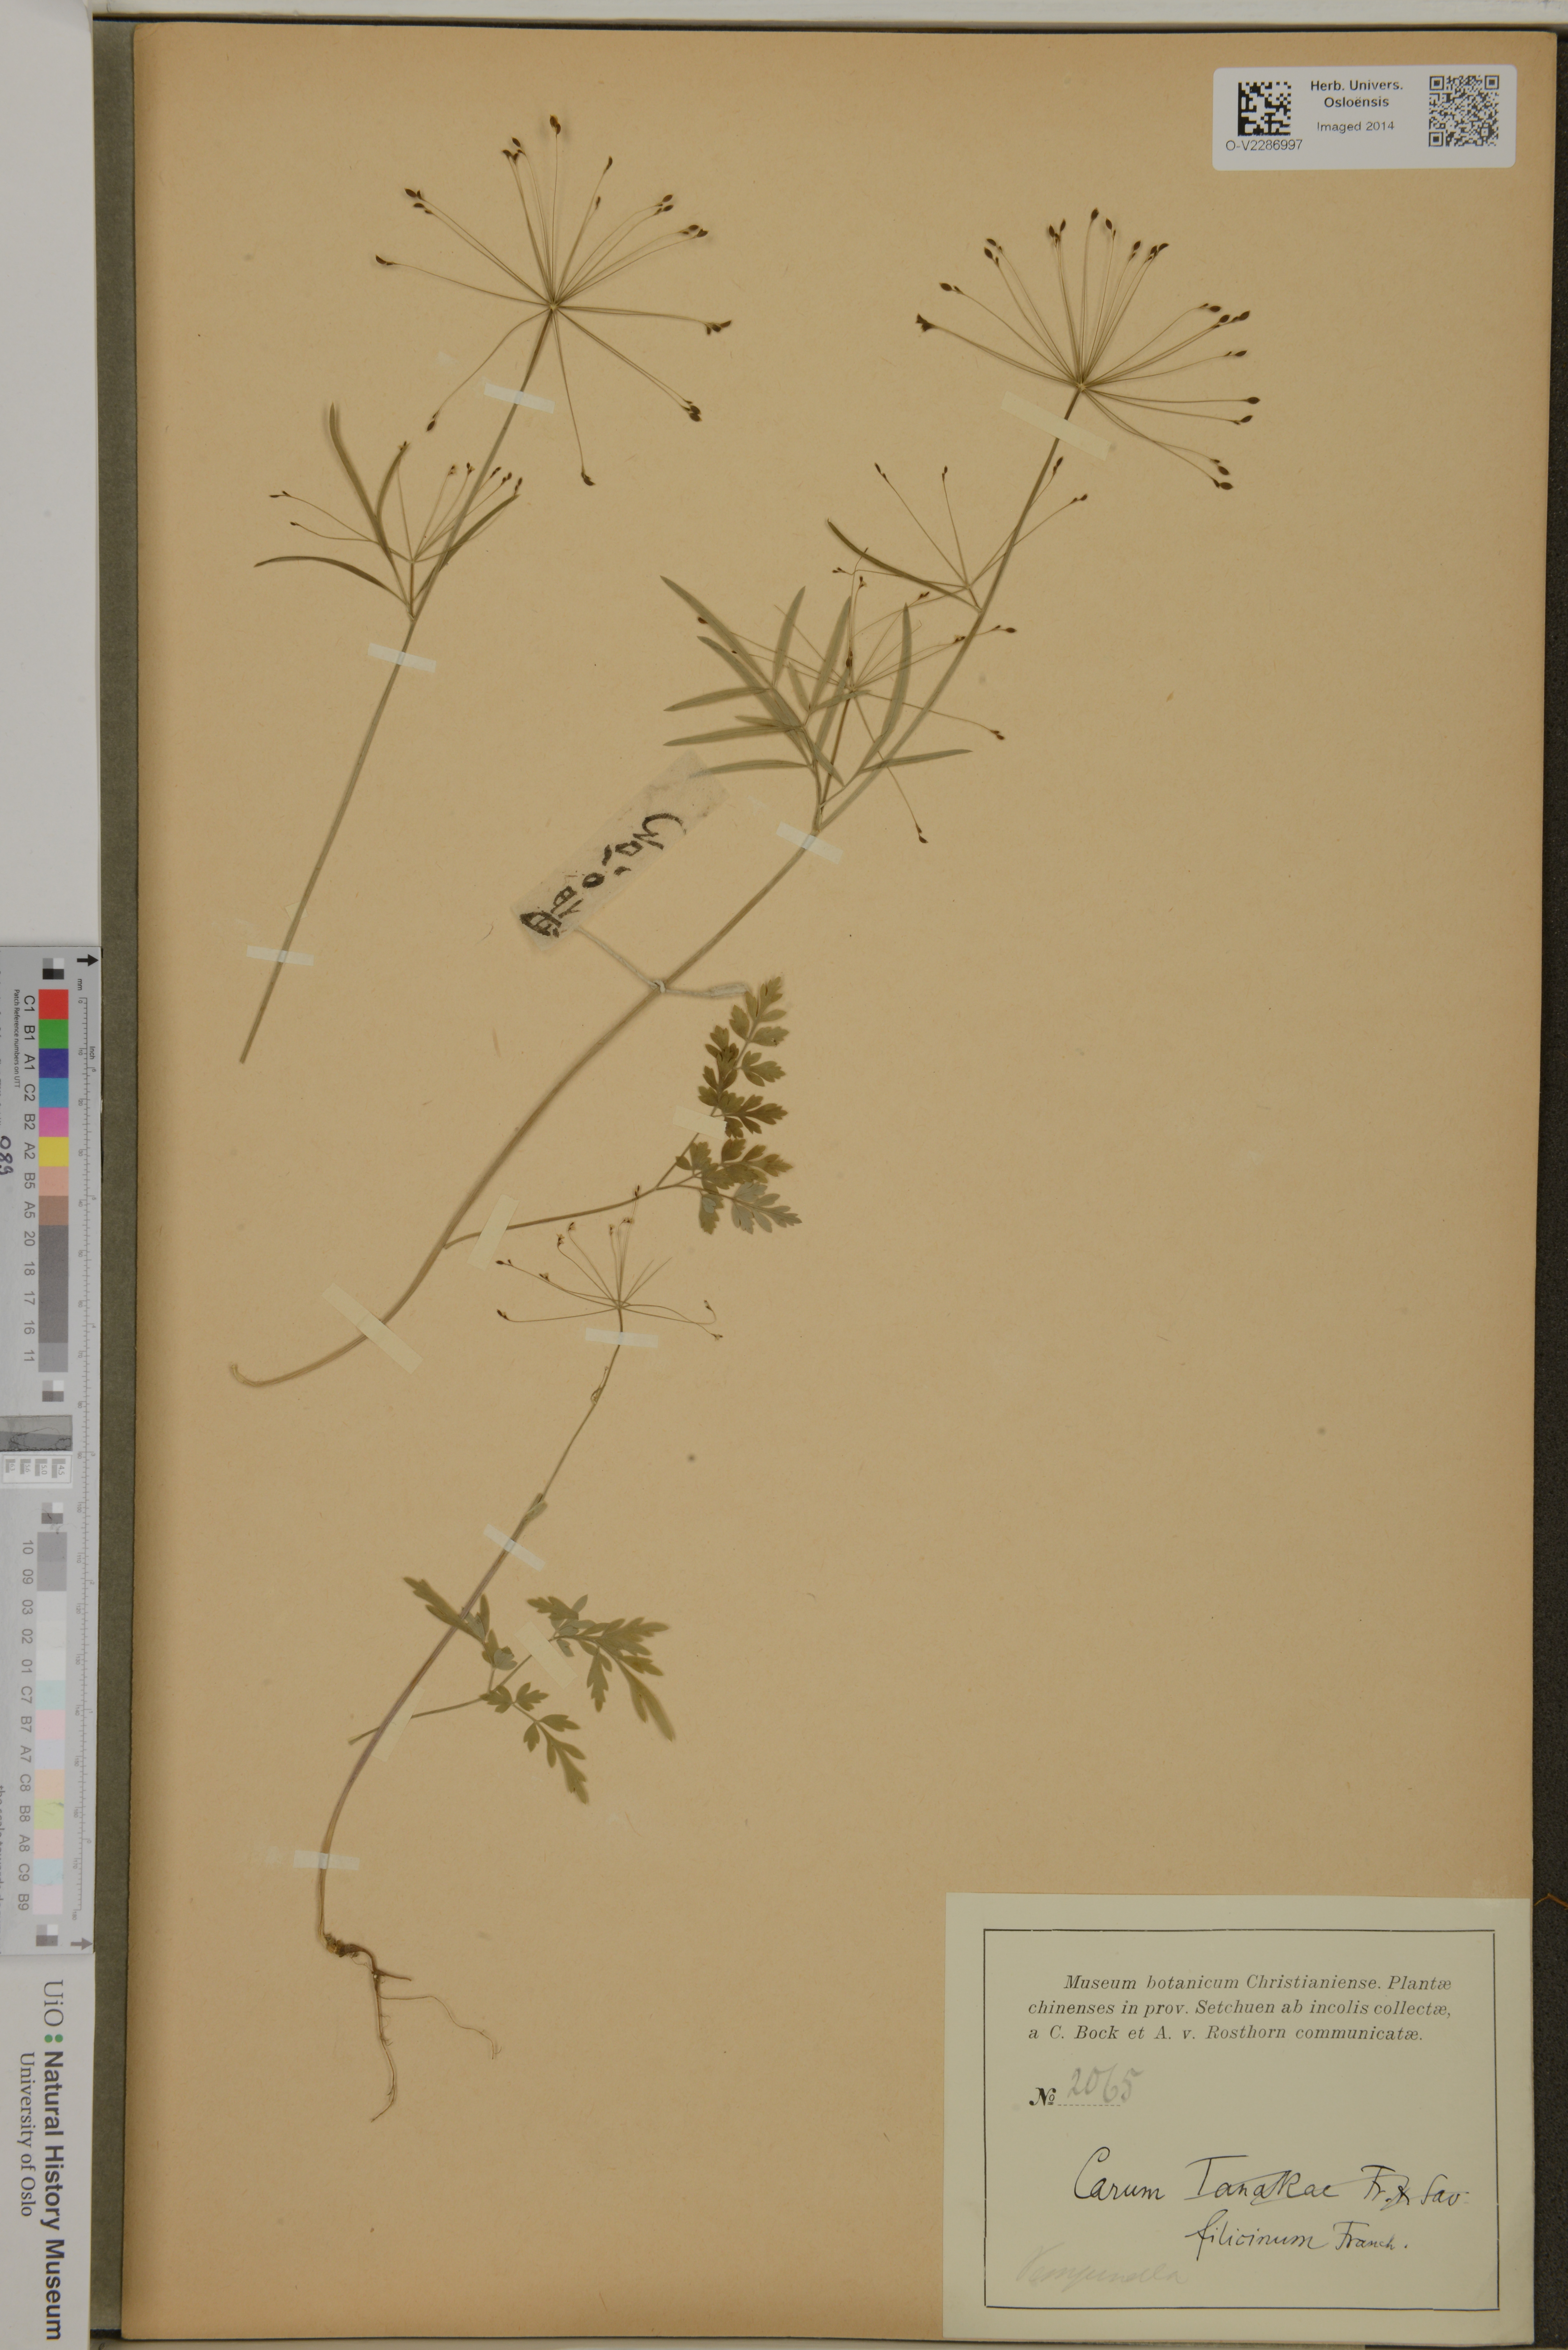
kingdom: Plantae
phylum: Tracheophyta
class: Magnoliopsida
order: Apiales
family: Apiaceae
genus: Pternopetalum
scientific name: Pternopetalum tanakae
